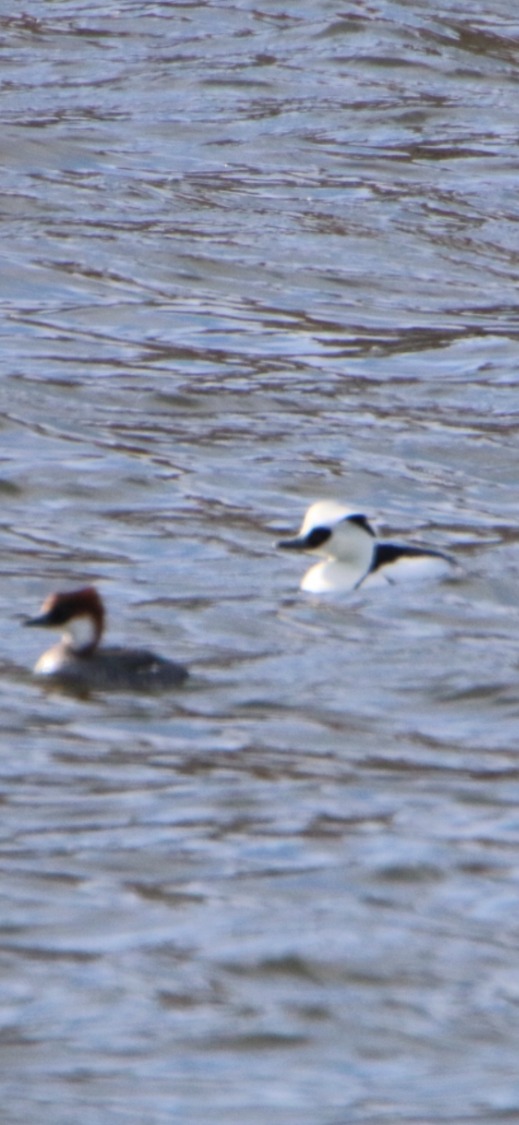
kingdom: Animalia
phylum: Chordata
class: Aves
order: Anseriformes
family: Anatidae
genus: Mergellus
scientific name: Mergellus albellus
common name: Lille skallesluger
